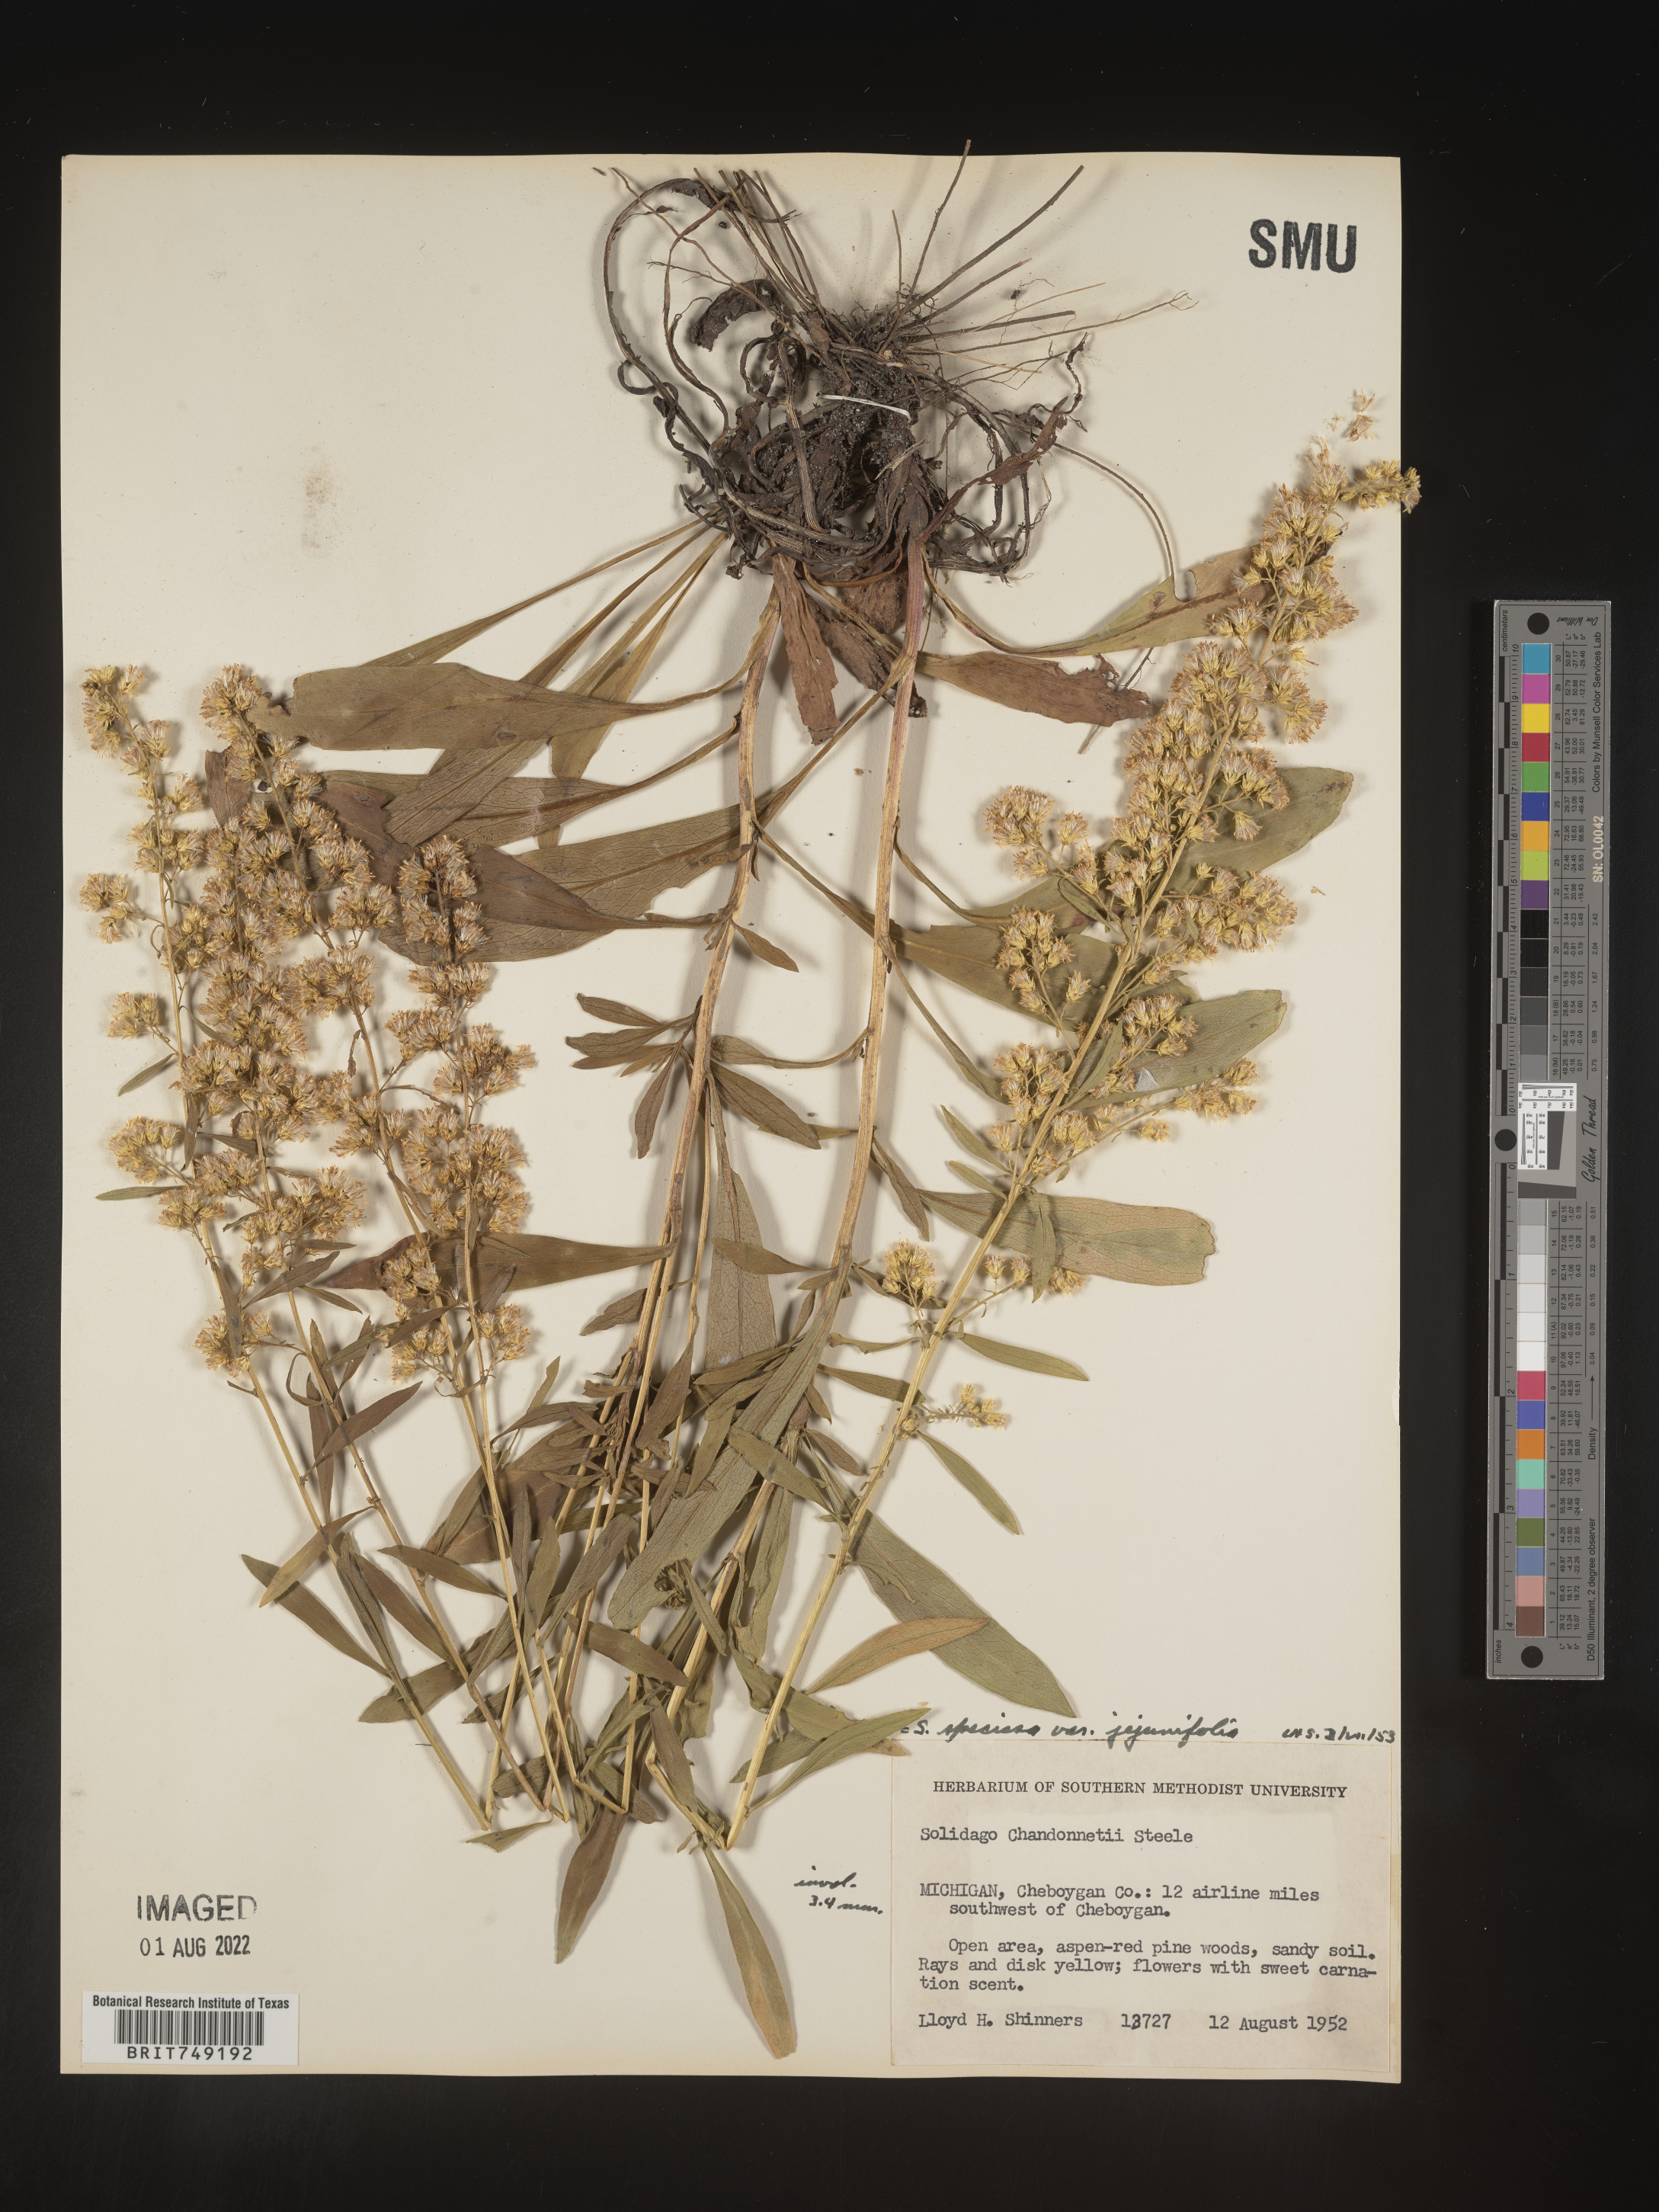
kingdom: Plantae
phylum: Tracheophyta
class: Magnoliopsida
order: Asterales
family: Asteraceae
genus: Solidago
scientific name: Solidago speciosa
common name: Showy goldenrod
